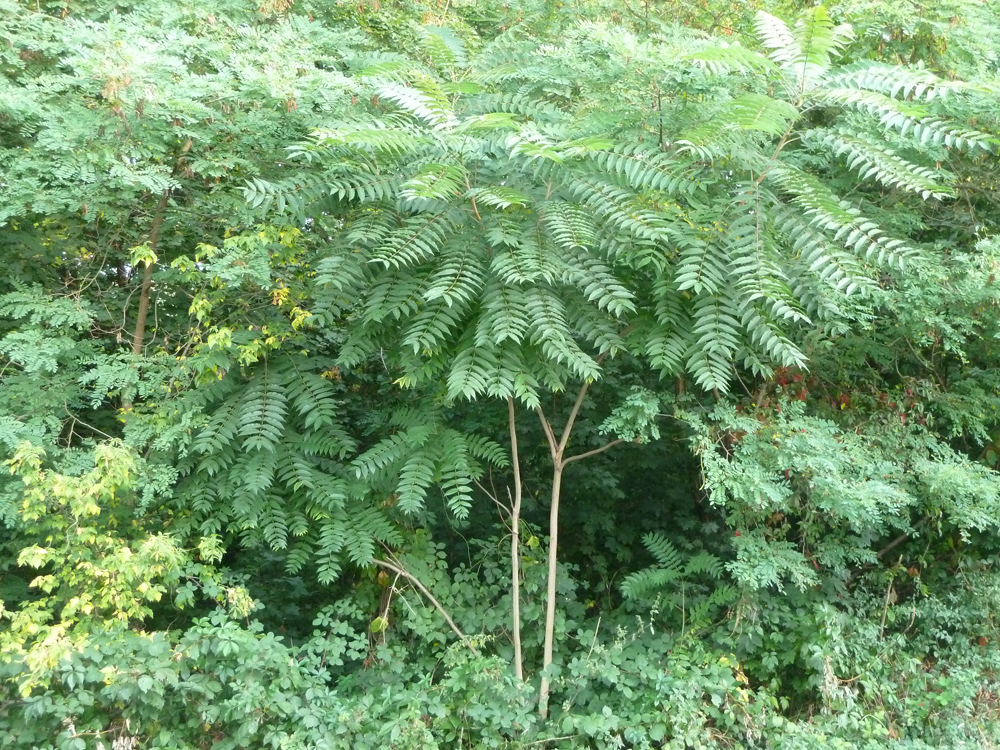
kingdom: Plantae
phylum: Tracheophyta
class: Magnoliopsida
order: Sapindales
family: Simaroubaceae
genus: Ailanthus
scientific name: Ailanthus altissima
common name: Tree-of-heaven
